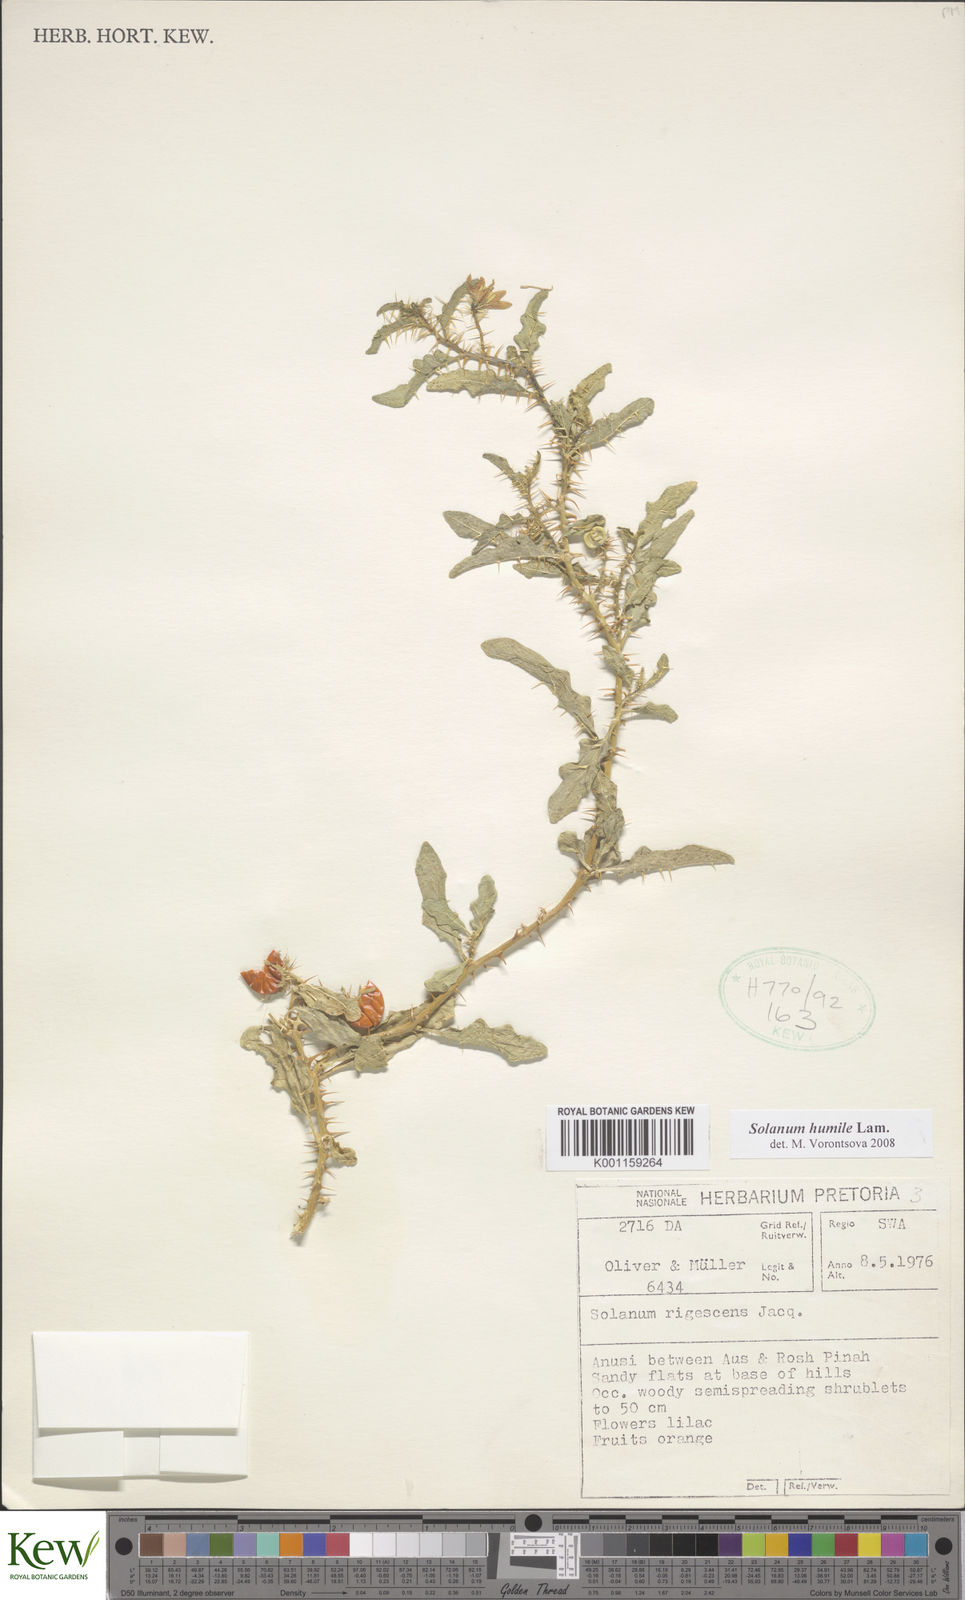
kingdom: Plantae
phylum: Tracheophyta
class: Magnoliopsida
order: Solanales
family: Solanaceae
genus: Solanum
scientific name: Solanum humile
